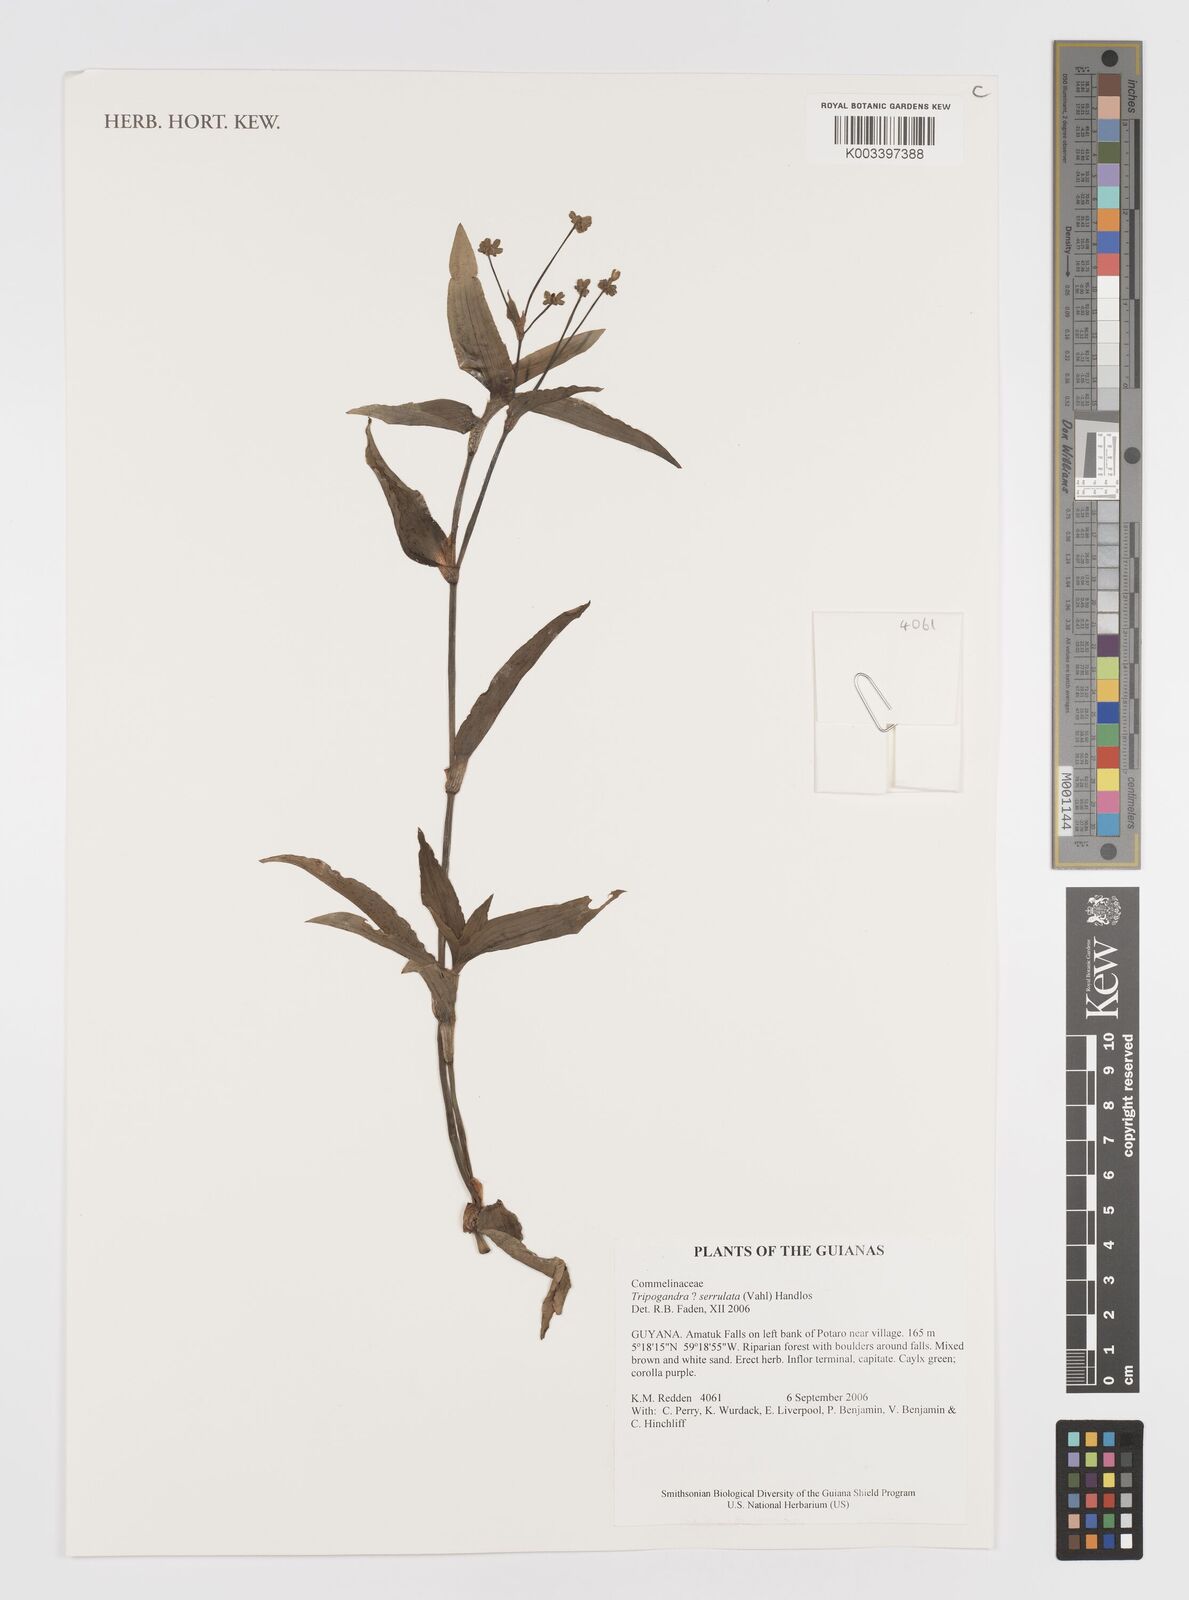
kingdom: Plantae
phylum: Tracheophyta
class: Liliopsida
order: Commelinales
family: Commelinaceae
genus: Callisia
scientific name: Callisia serrulata
